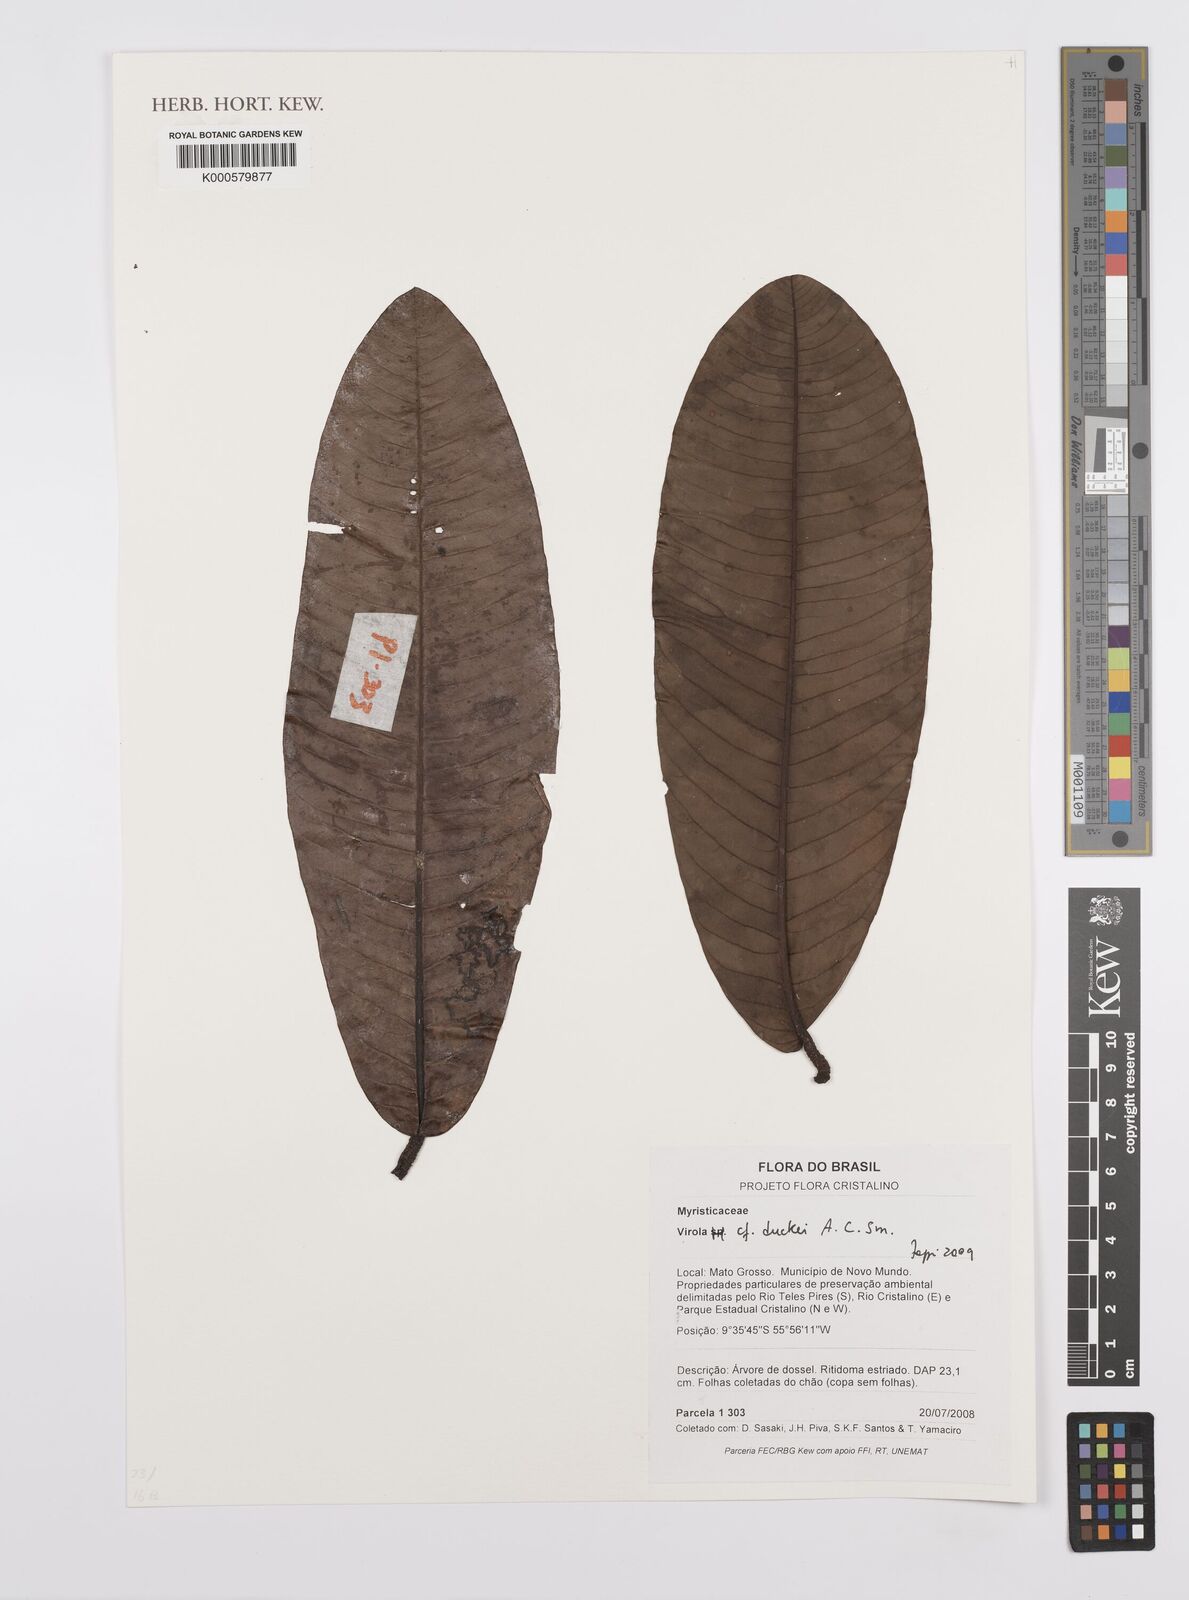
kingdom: Plantae
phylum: Tracheophyta
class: Magnoliopsida
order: Magnoliales
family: Myristicaceae
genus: Virola
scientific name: Virola duckei
